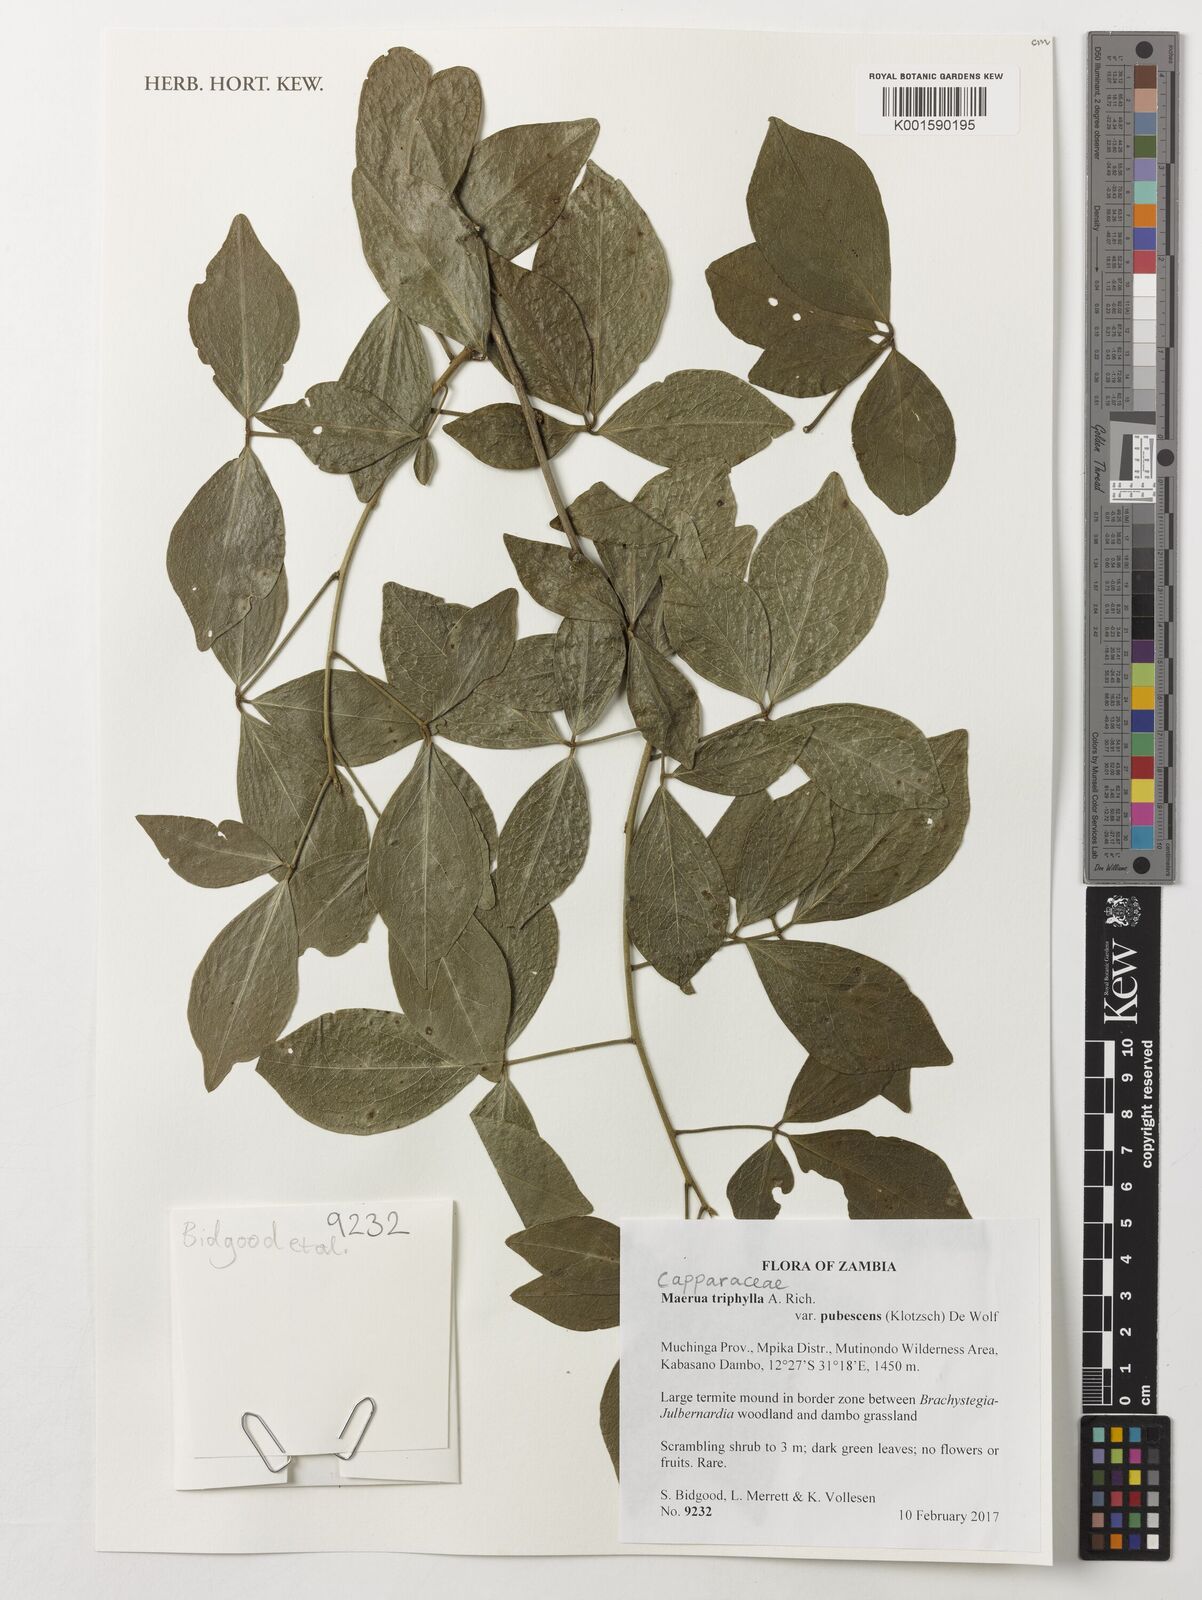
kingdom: Plantae
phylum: Tracheophyta
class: Magnoliopsida
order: Brassicales
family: Capparaceae
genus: Maerua
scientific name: Maerua triphylla
